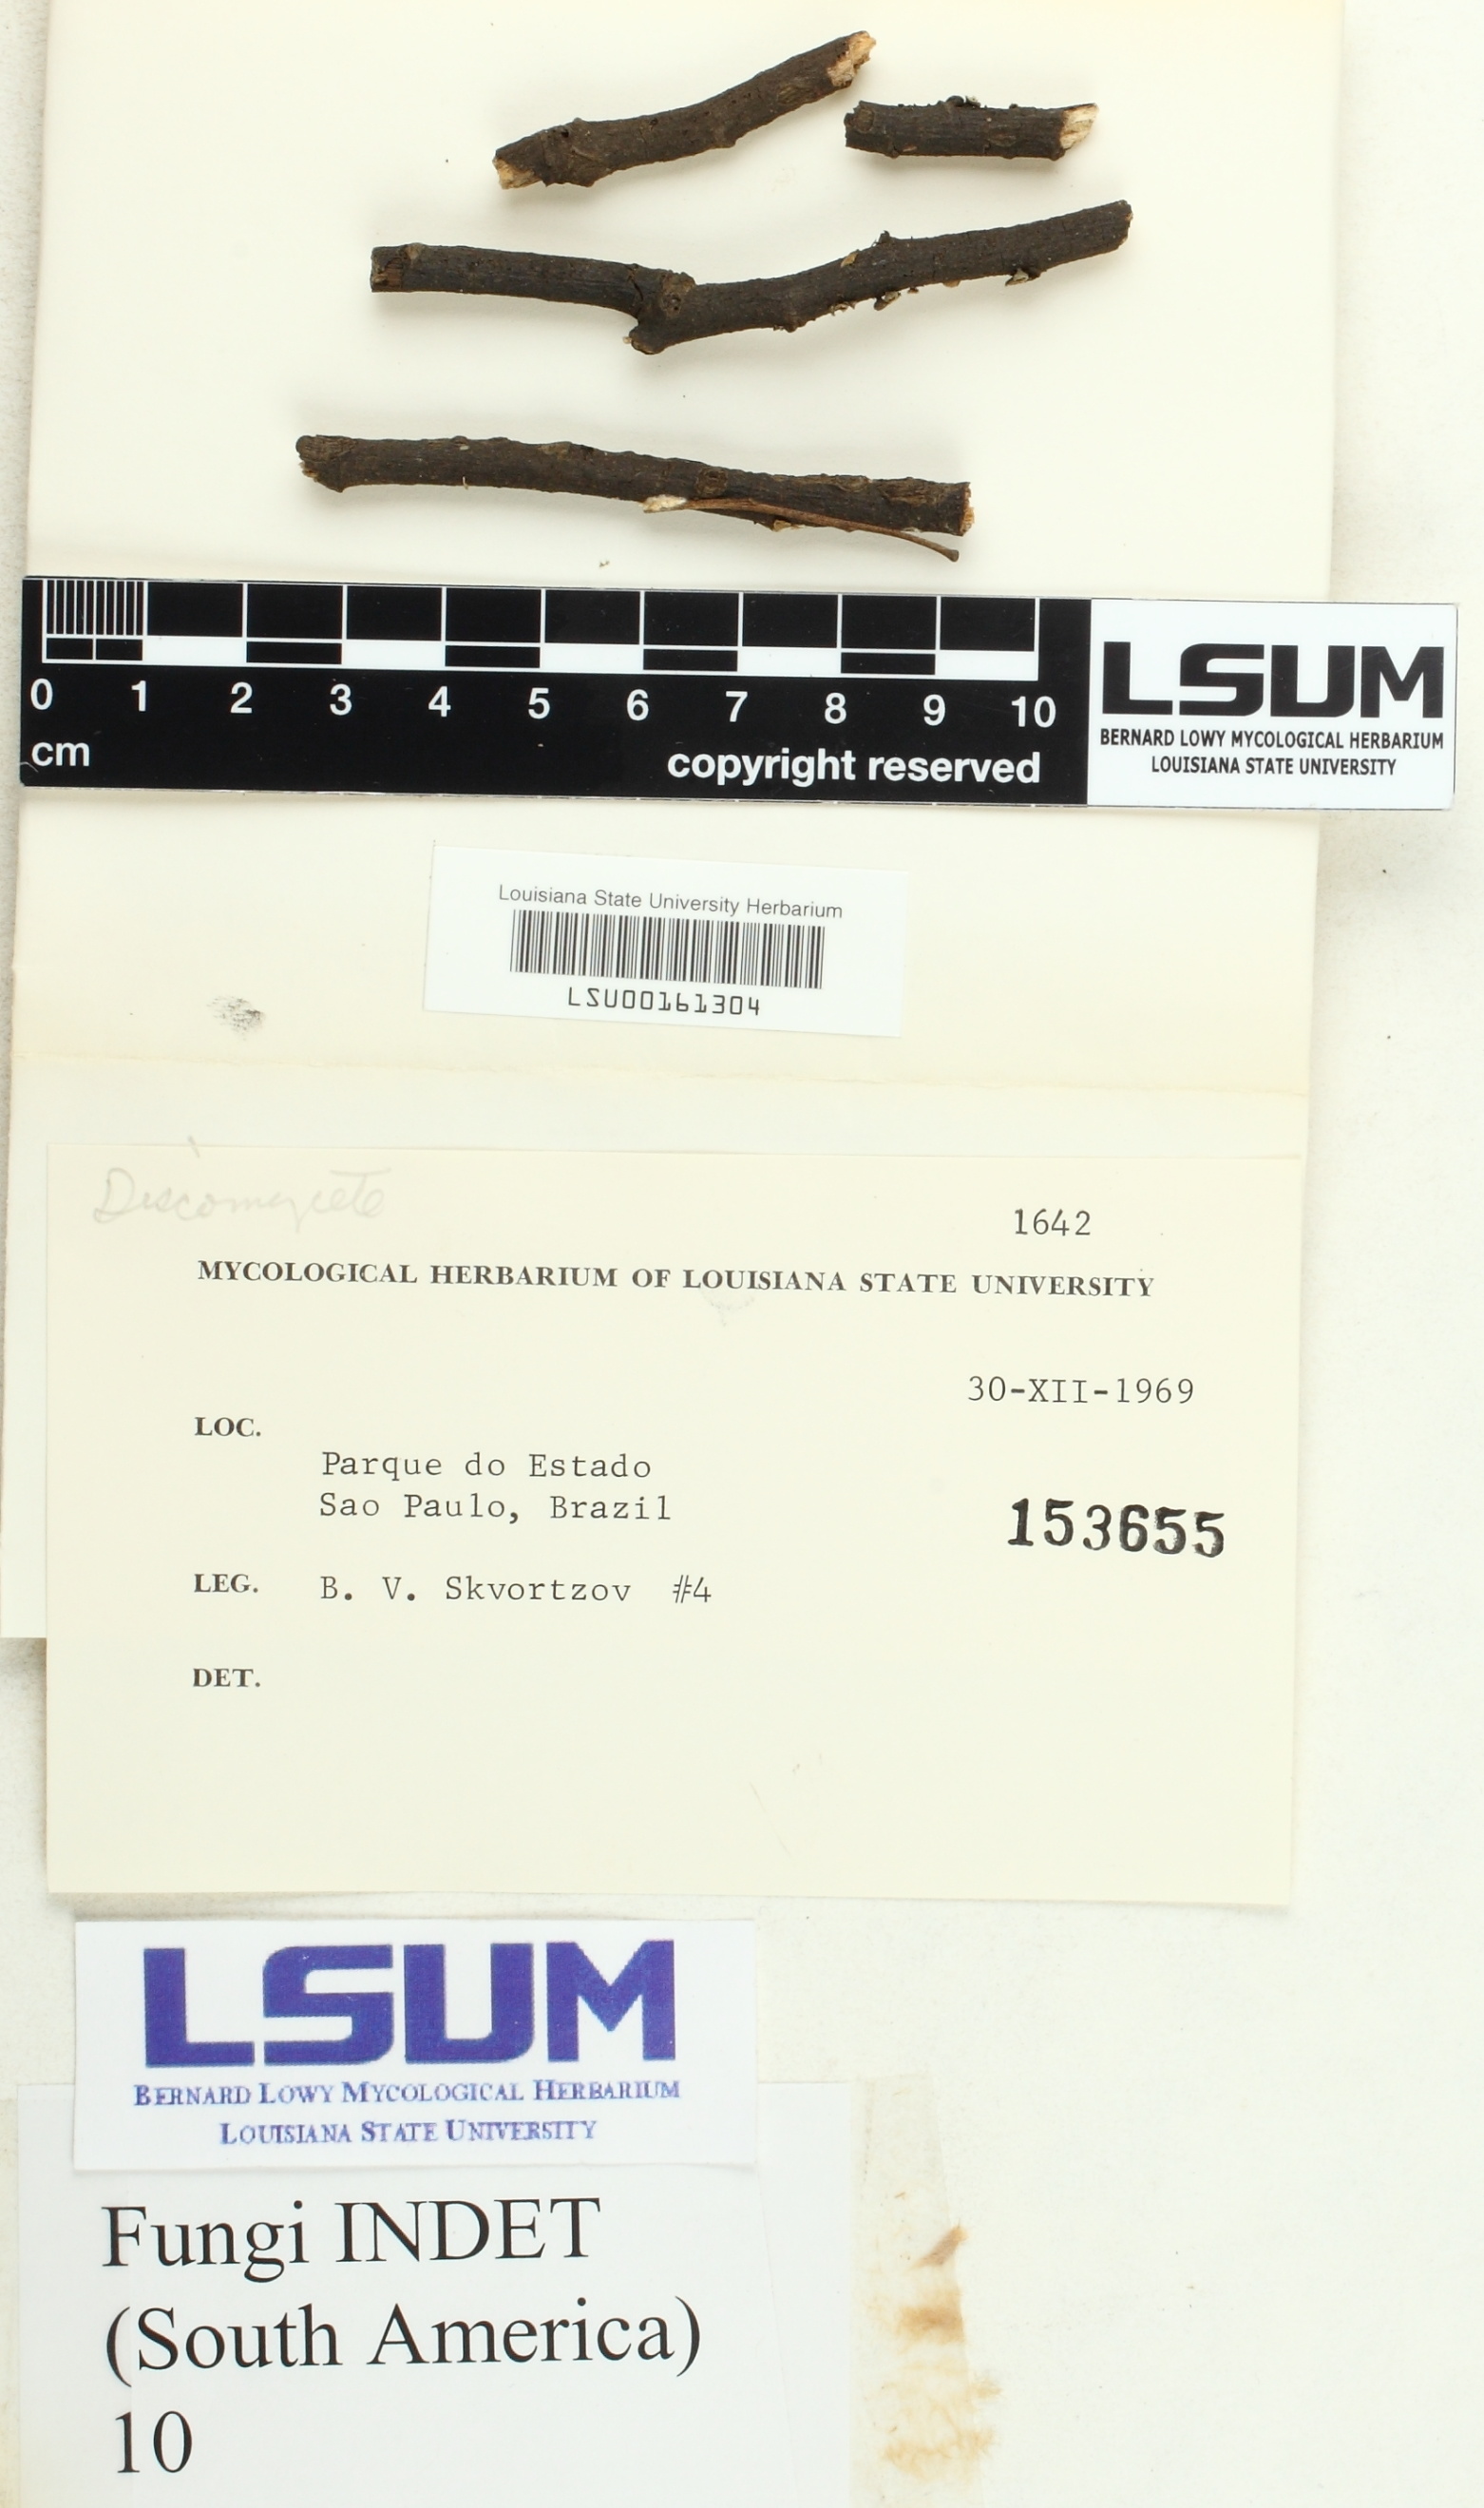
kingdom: Fungi
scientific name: Fungi
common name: Fungi
